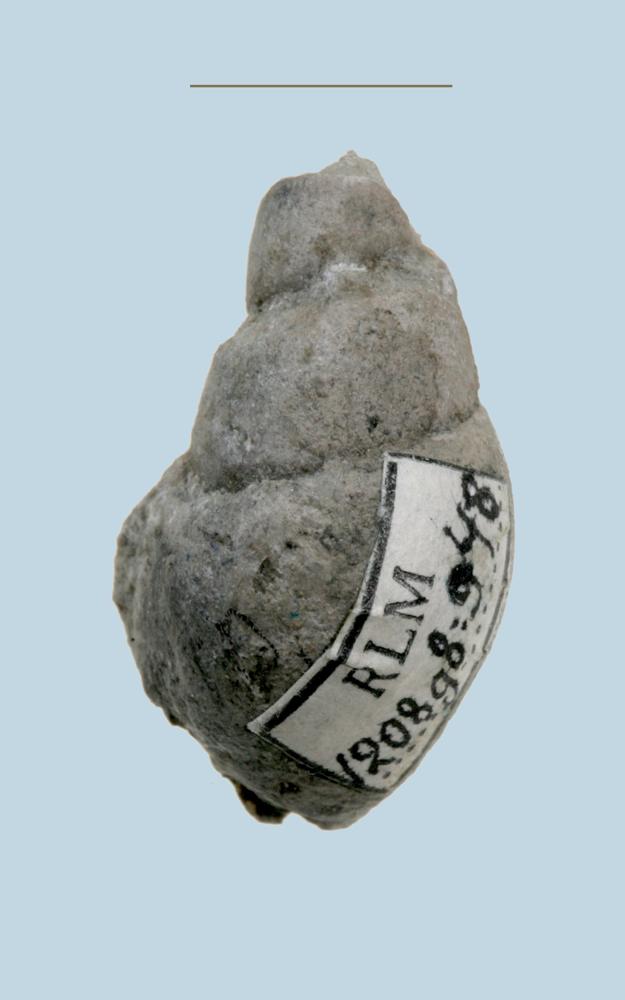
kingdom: Animalia
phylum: Mollusca
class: Gastropoda
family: Subulitidae
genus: Subulites
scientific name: Subulites amphora
